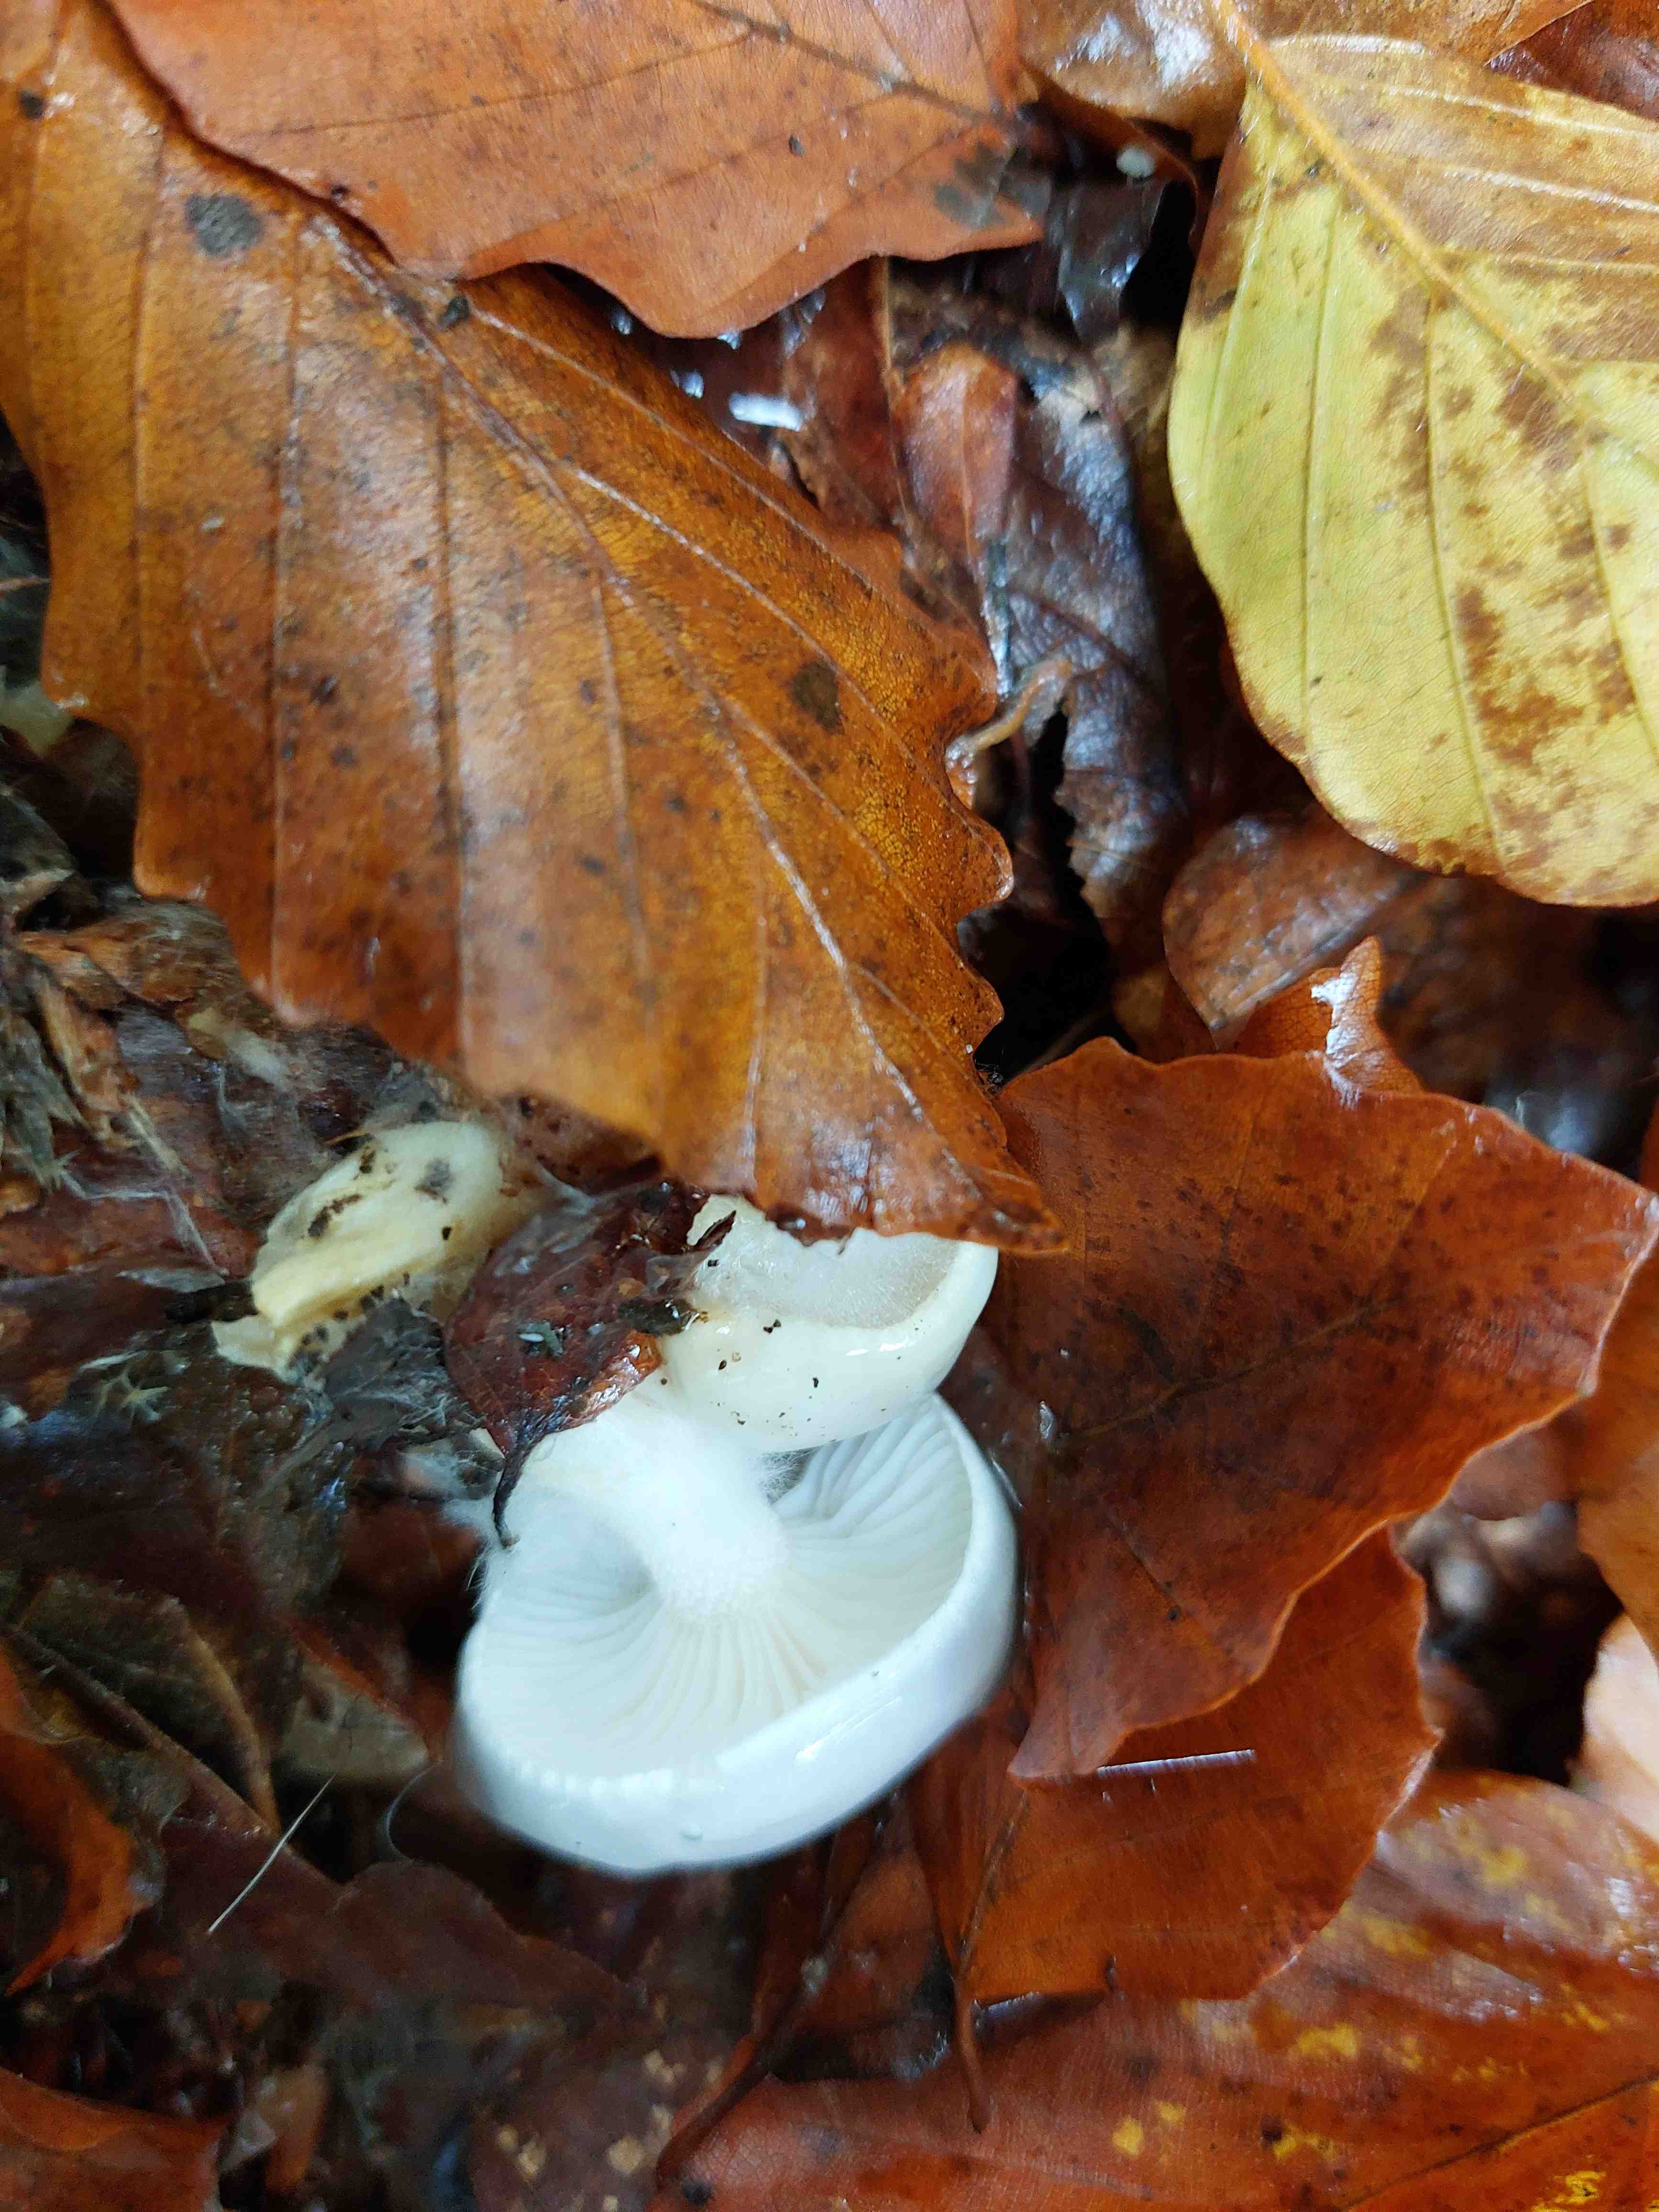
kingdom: Fungi
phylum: Basidiomycota
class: Agaricomycetes
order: Agaricales
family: Hygrophoraceae
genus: Hygrophorus
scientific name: Hygrophorus eburneus
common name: elfenbens-sneglehat
